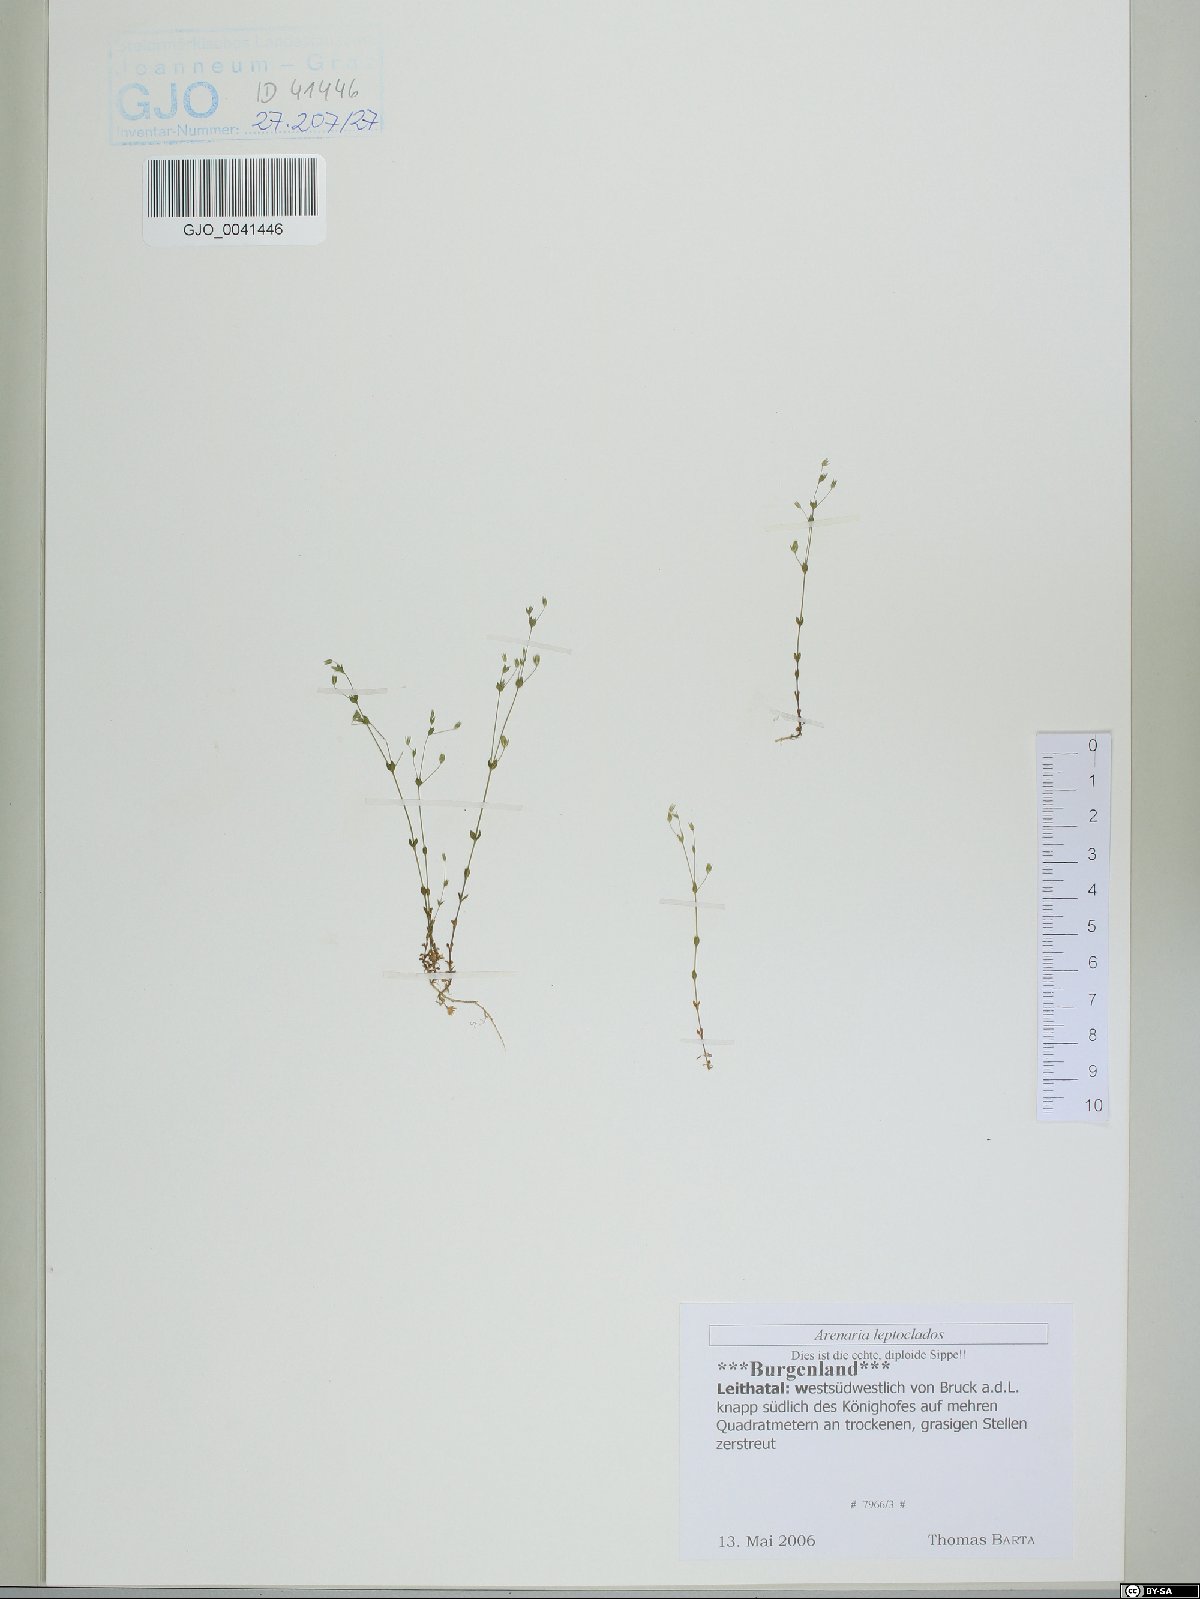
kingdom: Plantae
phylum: Tracheophyta
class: Magnoliopsida
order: Caryophyllales
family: Caryophyllaceae
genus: Arenaria
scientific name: Arenaria leptoclados
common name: Thyme-leaved sandwort
